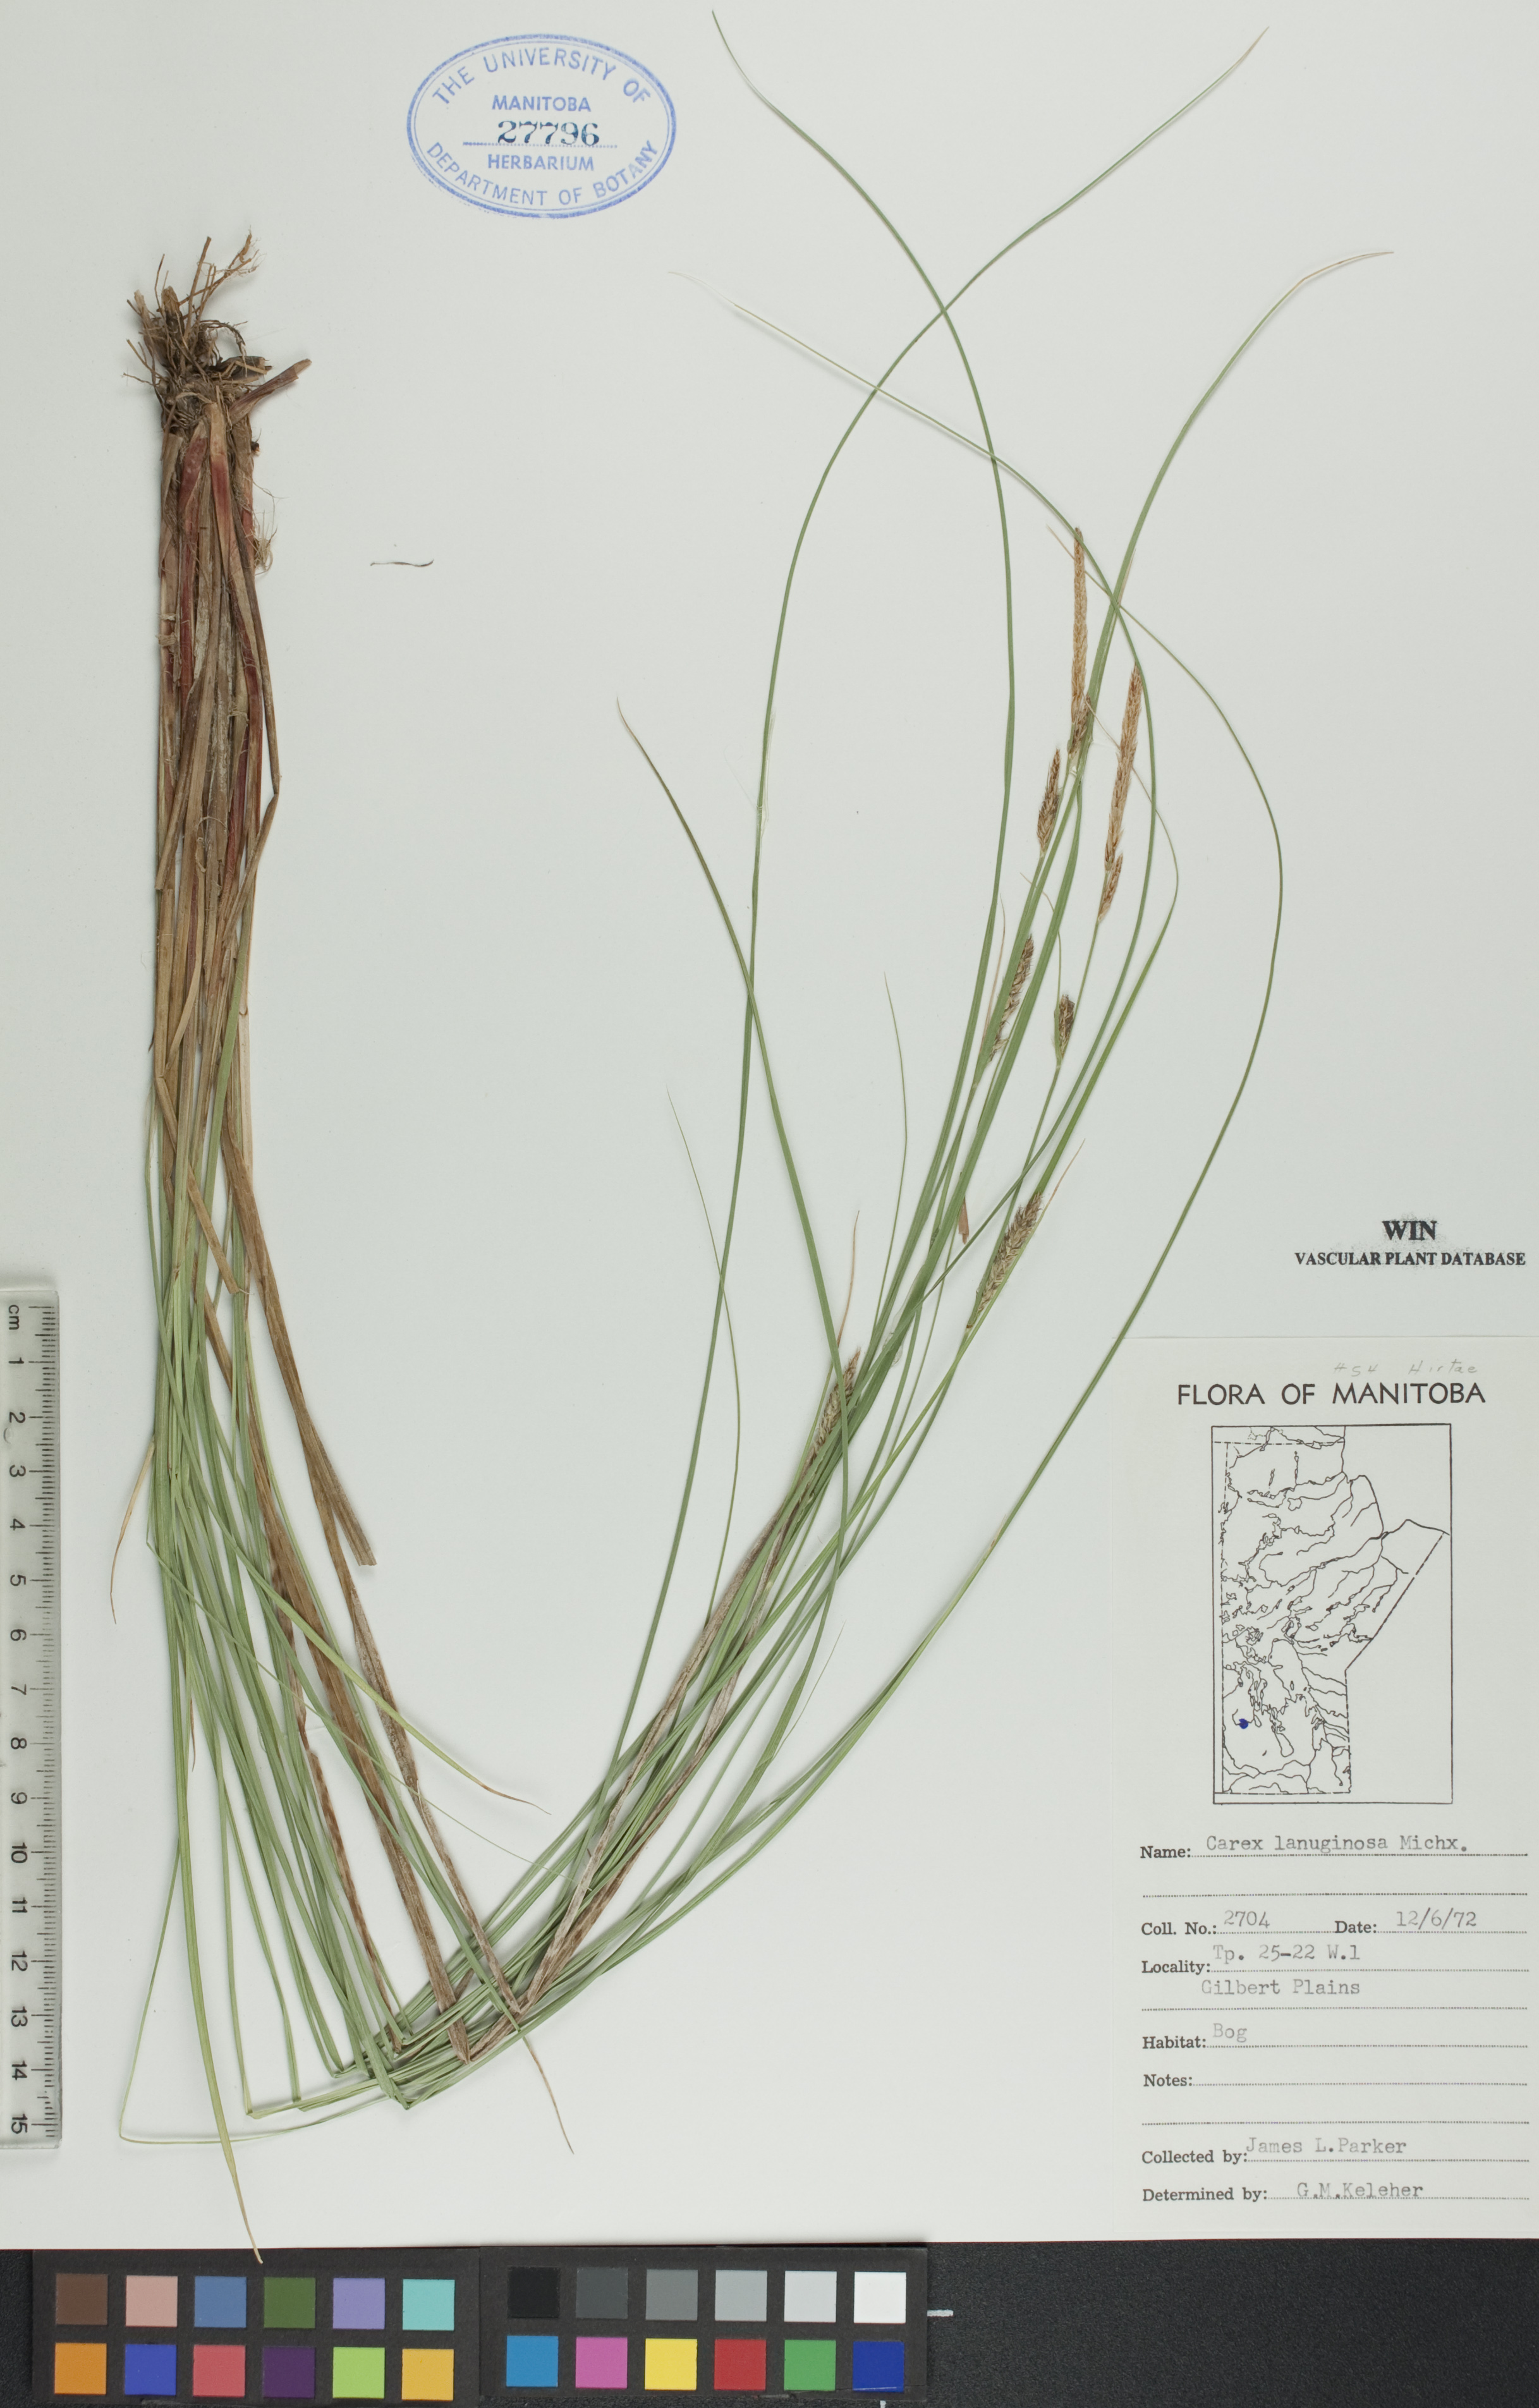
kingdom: Plantae
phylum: Tracheophyta
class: Liliopsida
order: Poales
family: Cyperaceae
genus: Carex
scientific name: Carex lasiocarpa
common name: Slender sedge
